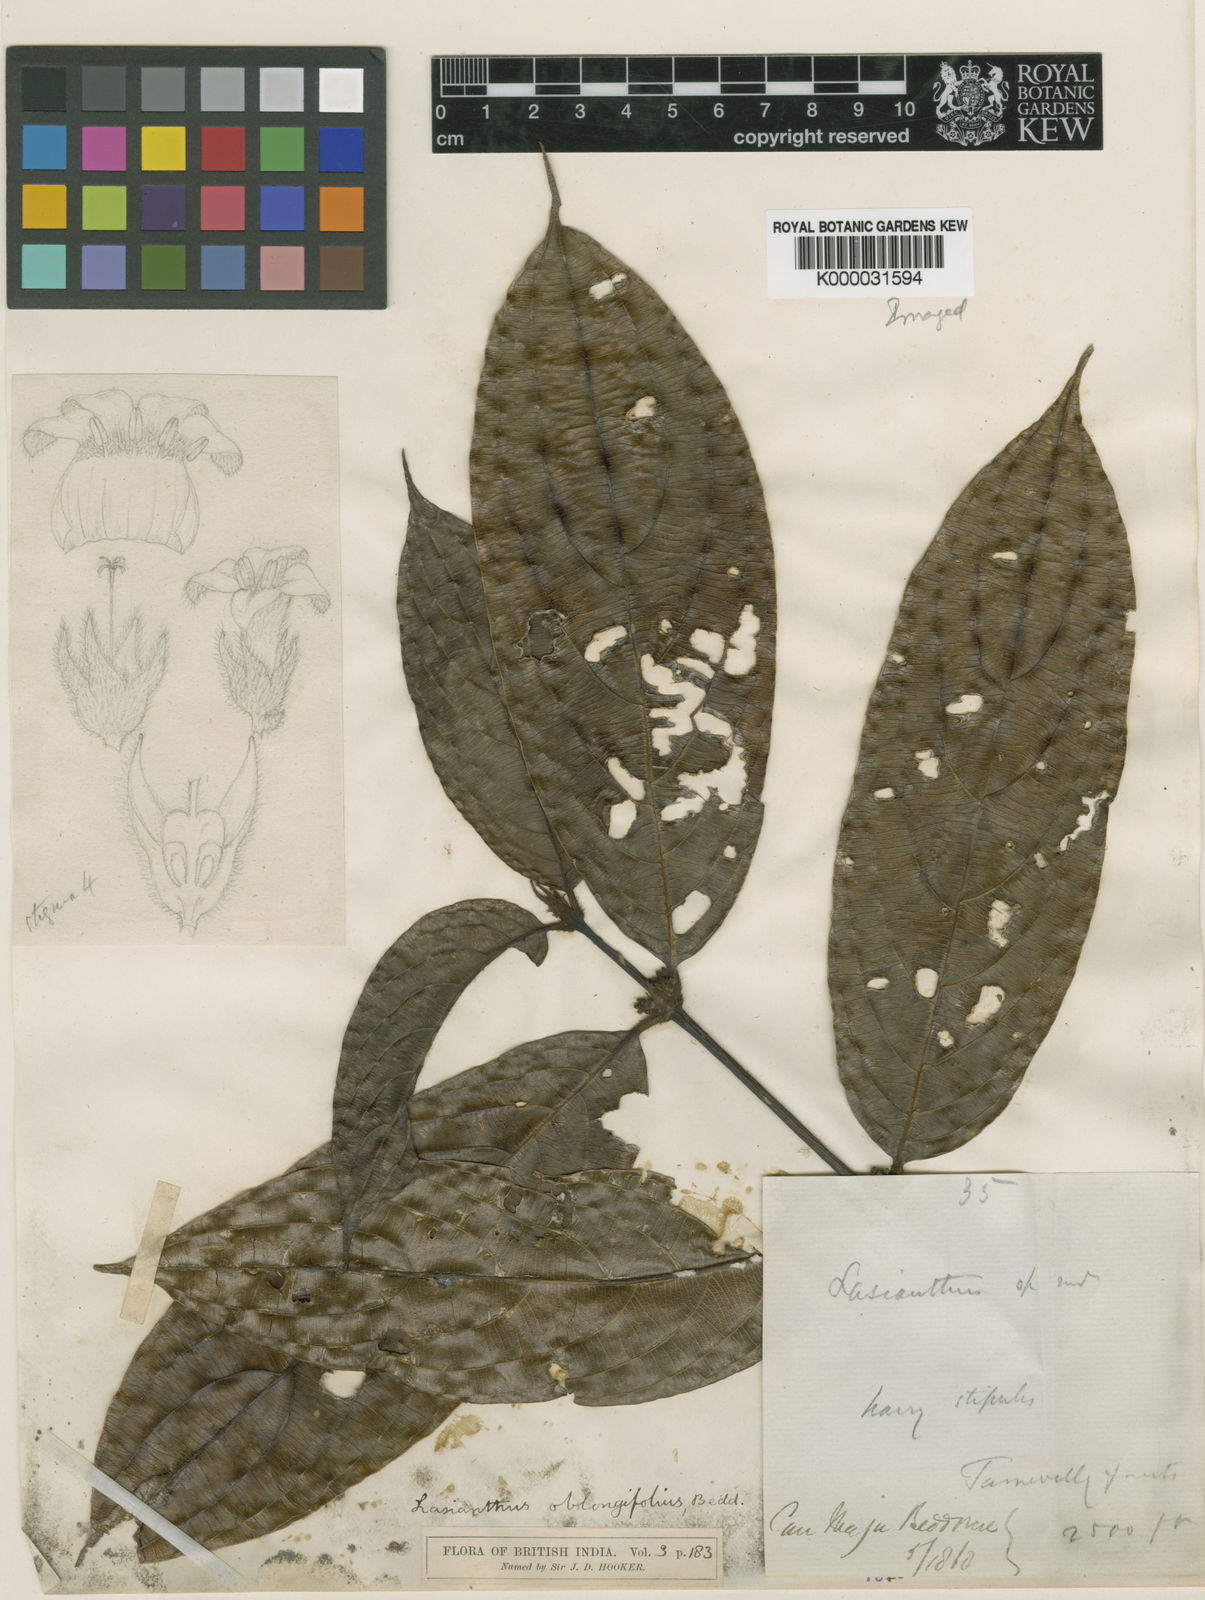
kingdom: Plantae
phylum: Tracheophyta
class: Magnoliopsida
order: Gentianales
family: Rubiaceae
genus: Lasianthus
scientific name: Lasianthus oblongifolius
